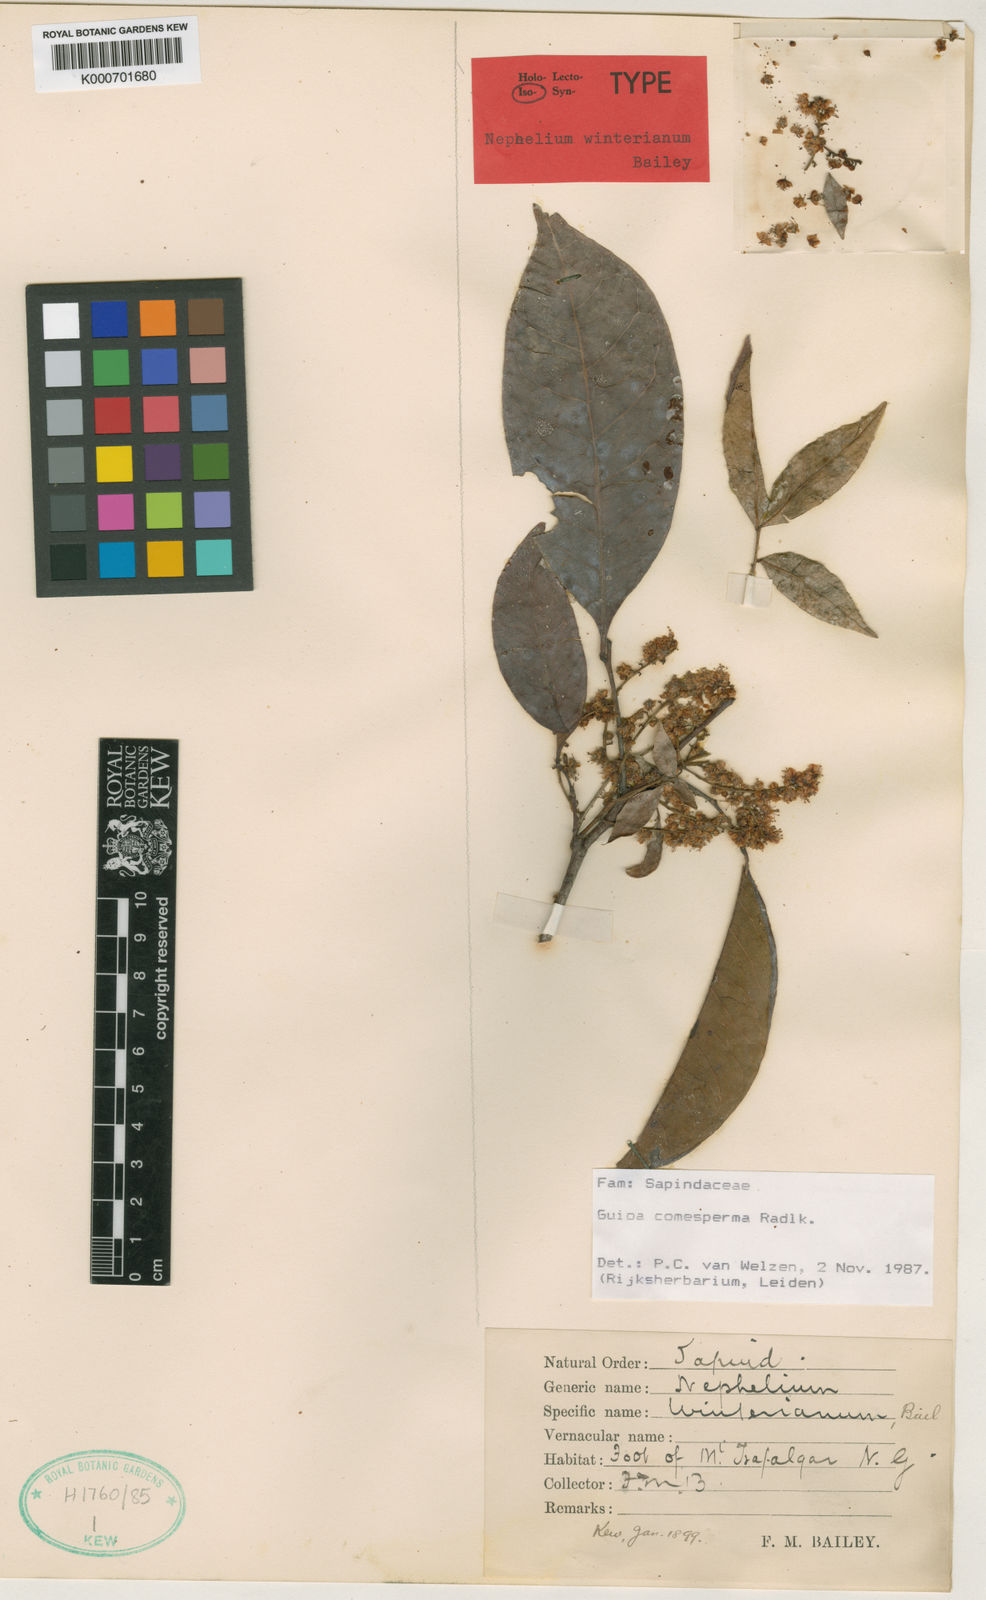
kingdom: Plantae
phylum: Tracheophyta
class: Magnoliopsida
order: Sapindales
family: Sapindaceae
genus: Guioa
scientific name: Guioa comesperma
